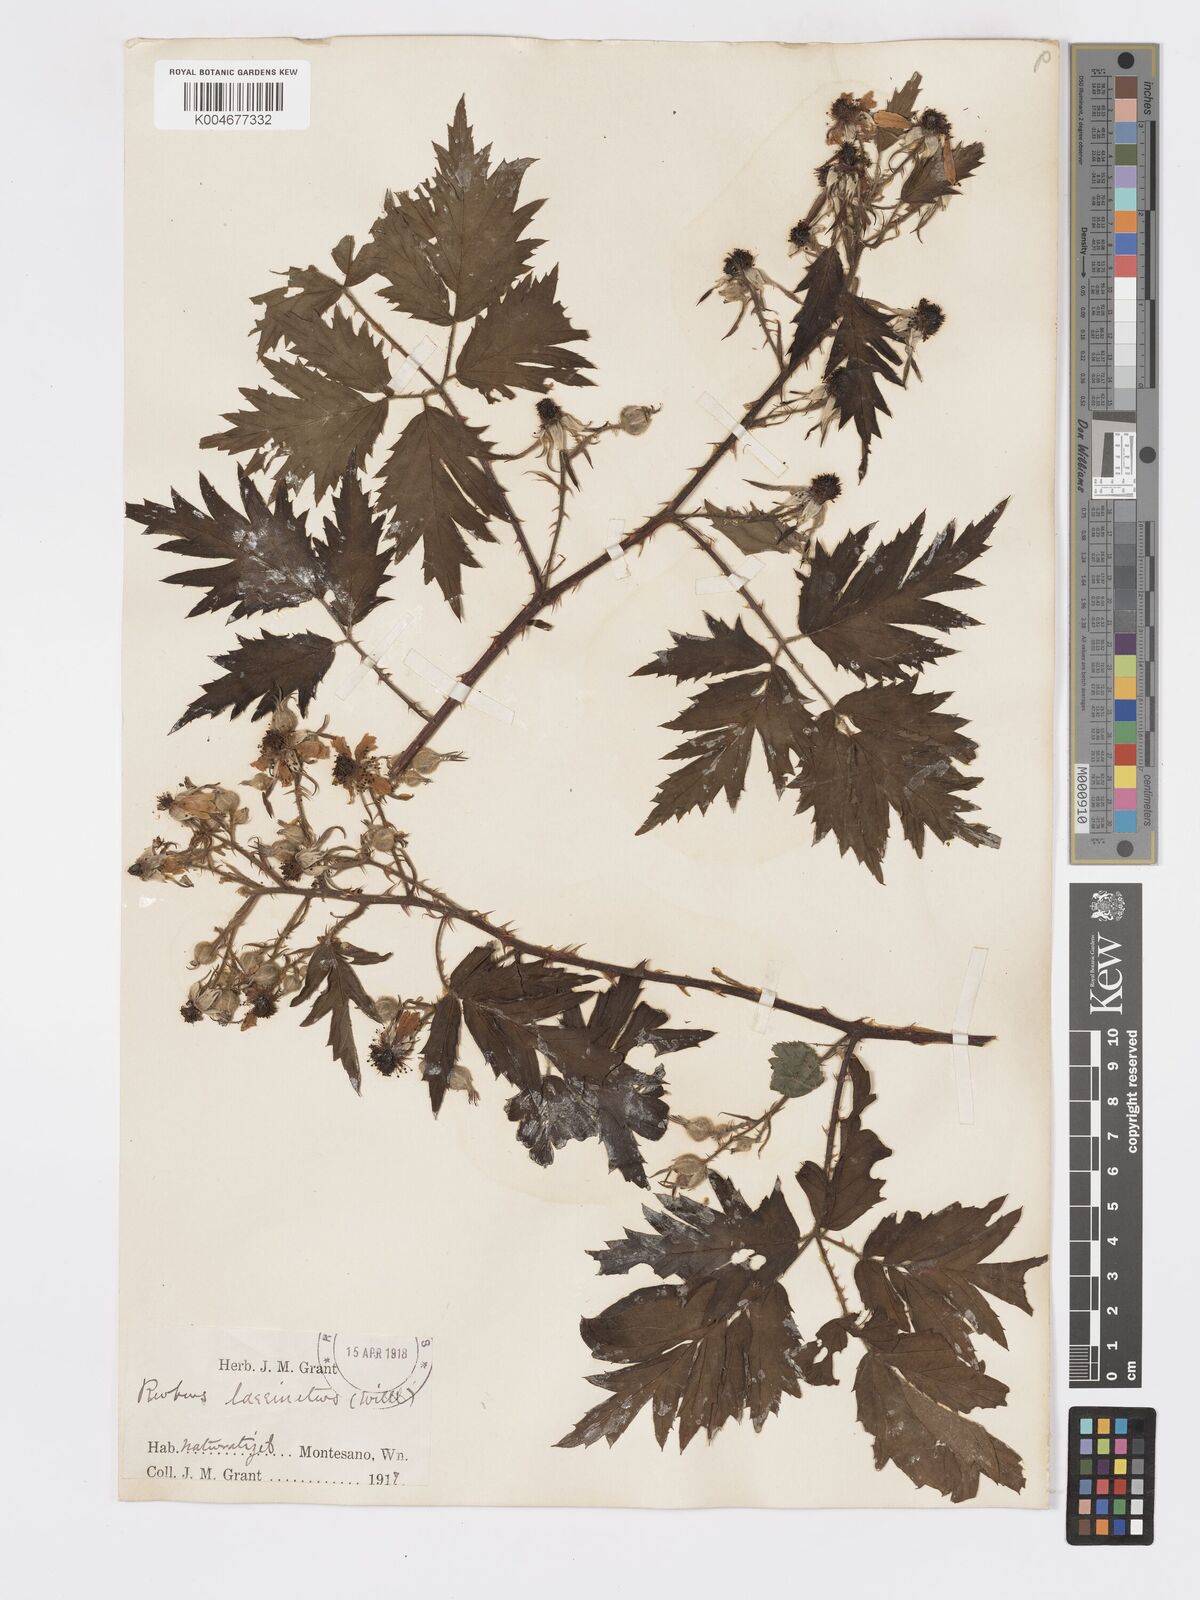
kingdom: Plantae
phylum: Tracheophyta
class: Magnoliopsida
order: Rosales
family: Rosaceae
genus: Rubus
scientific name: Rubus laciniatus
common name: Evergreen blackberry
